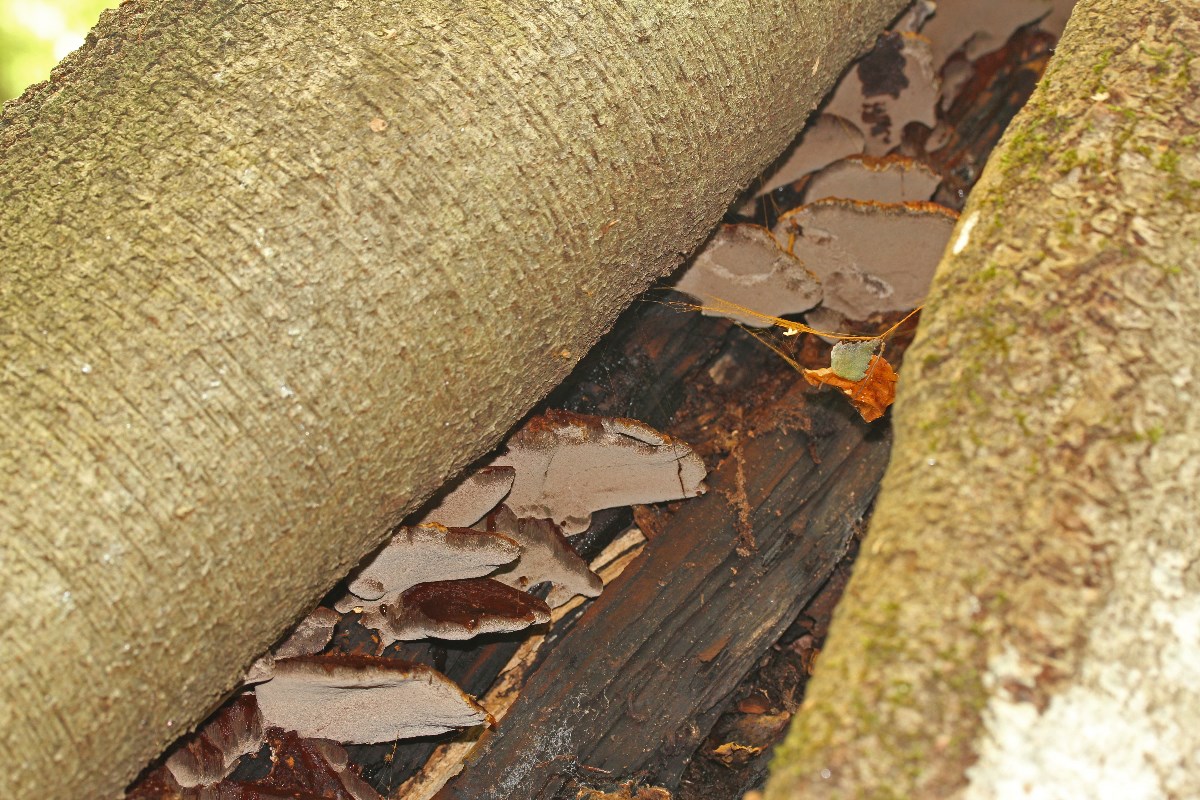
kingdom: Fungi
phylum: Basidiomycota
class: Agaricomycetes
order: Hymenochaetales
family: Hymenochaetaceae
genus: Inonotus
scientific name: Inonotus cuticularis
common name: kroghåret spejlporesvamp
